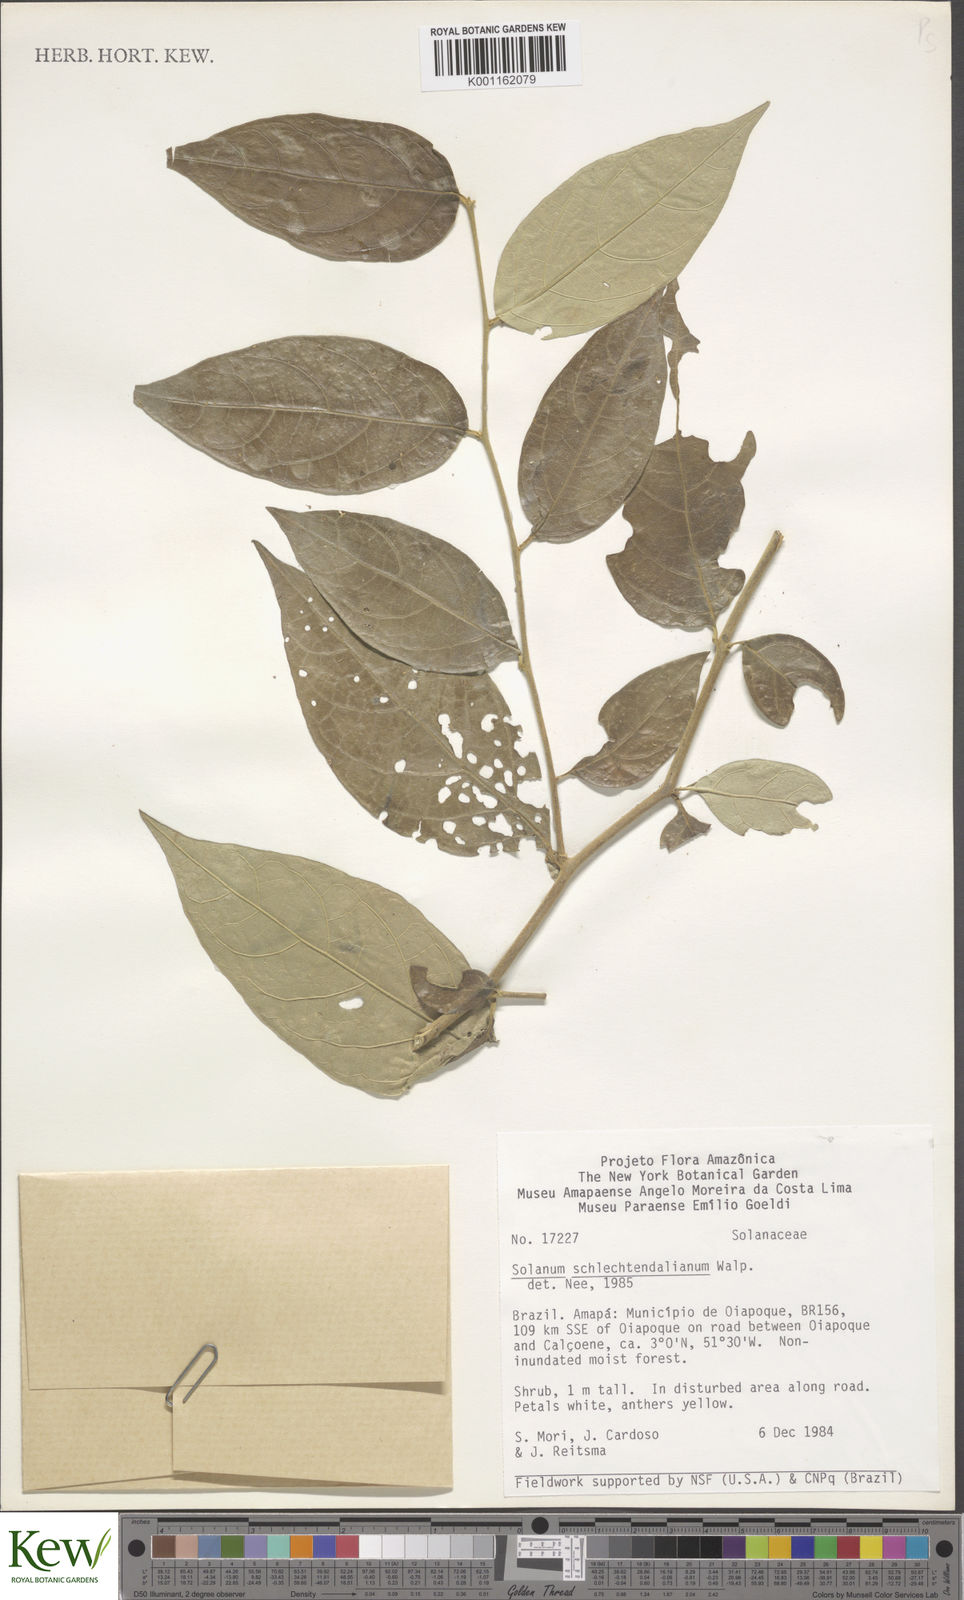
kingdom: Plantae
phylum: Tracheophyta
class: Magnoliopsida
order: Solanales
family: Solanaceae
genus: Solanum
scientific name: Solanum schlechtendalianum
